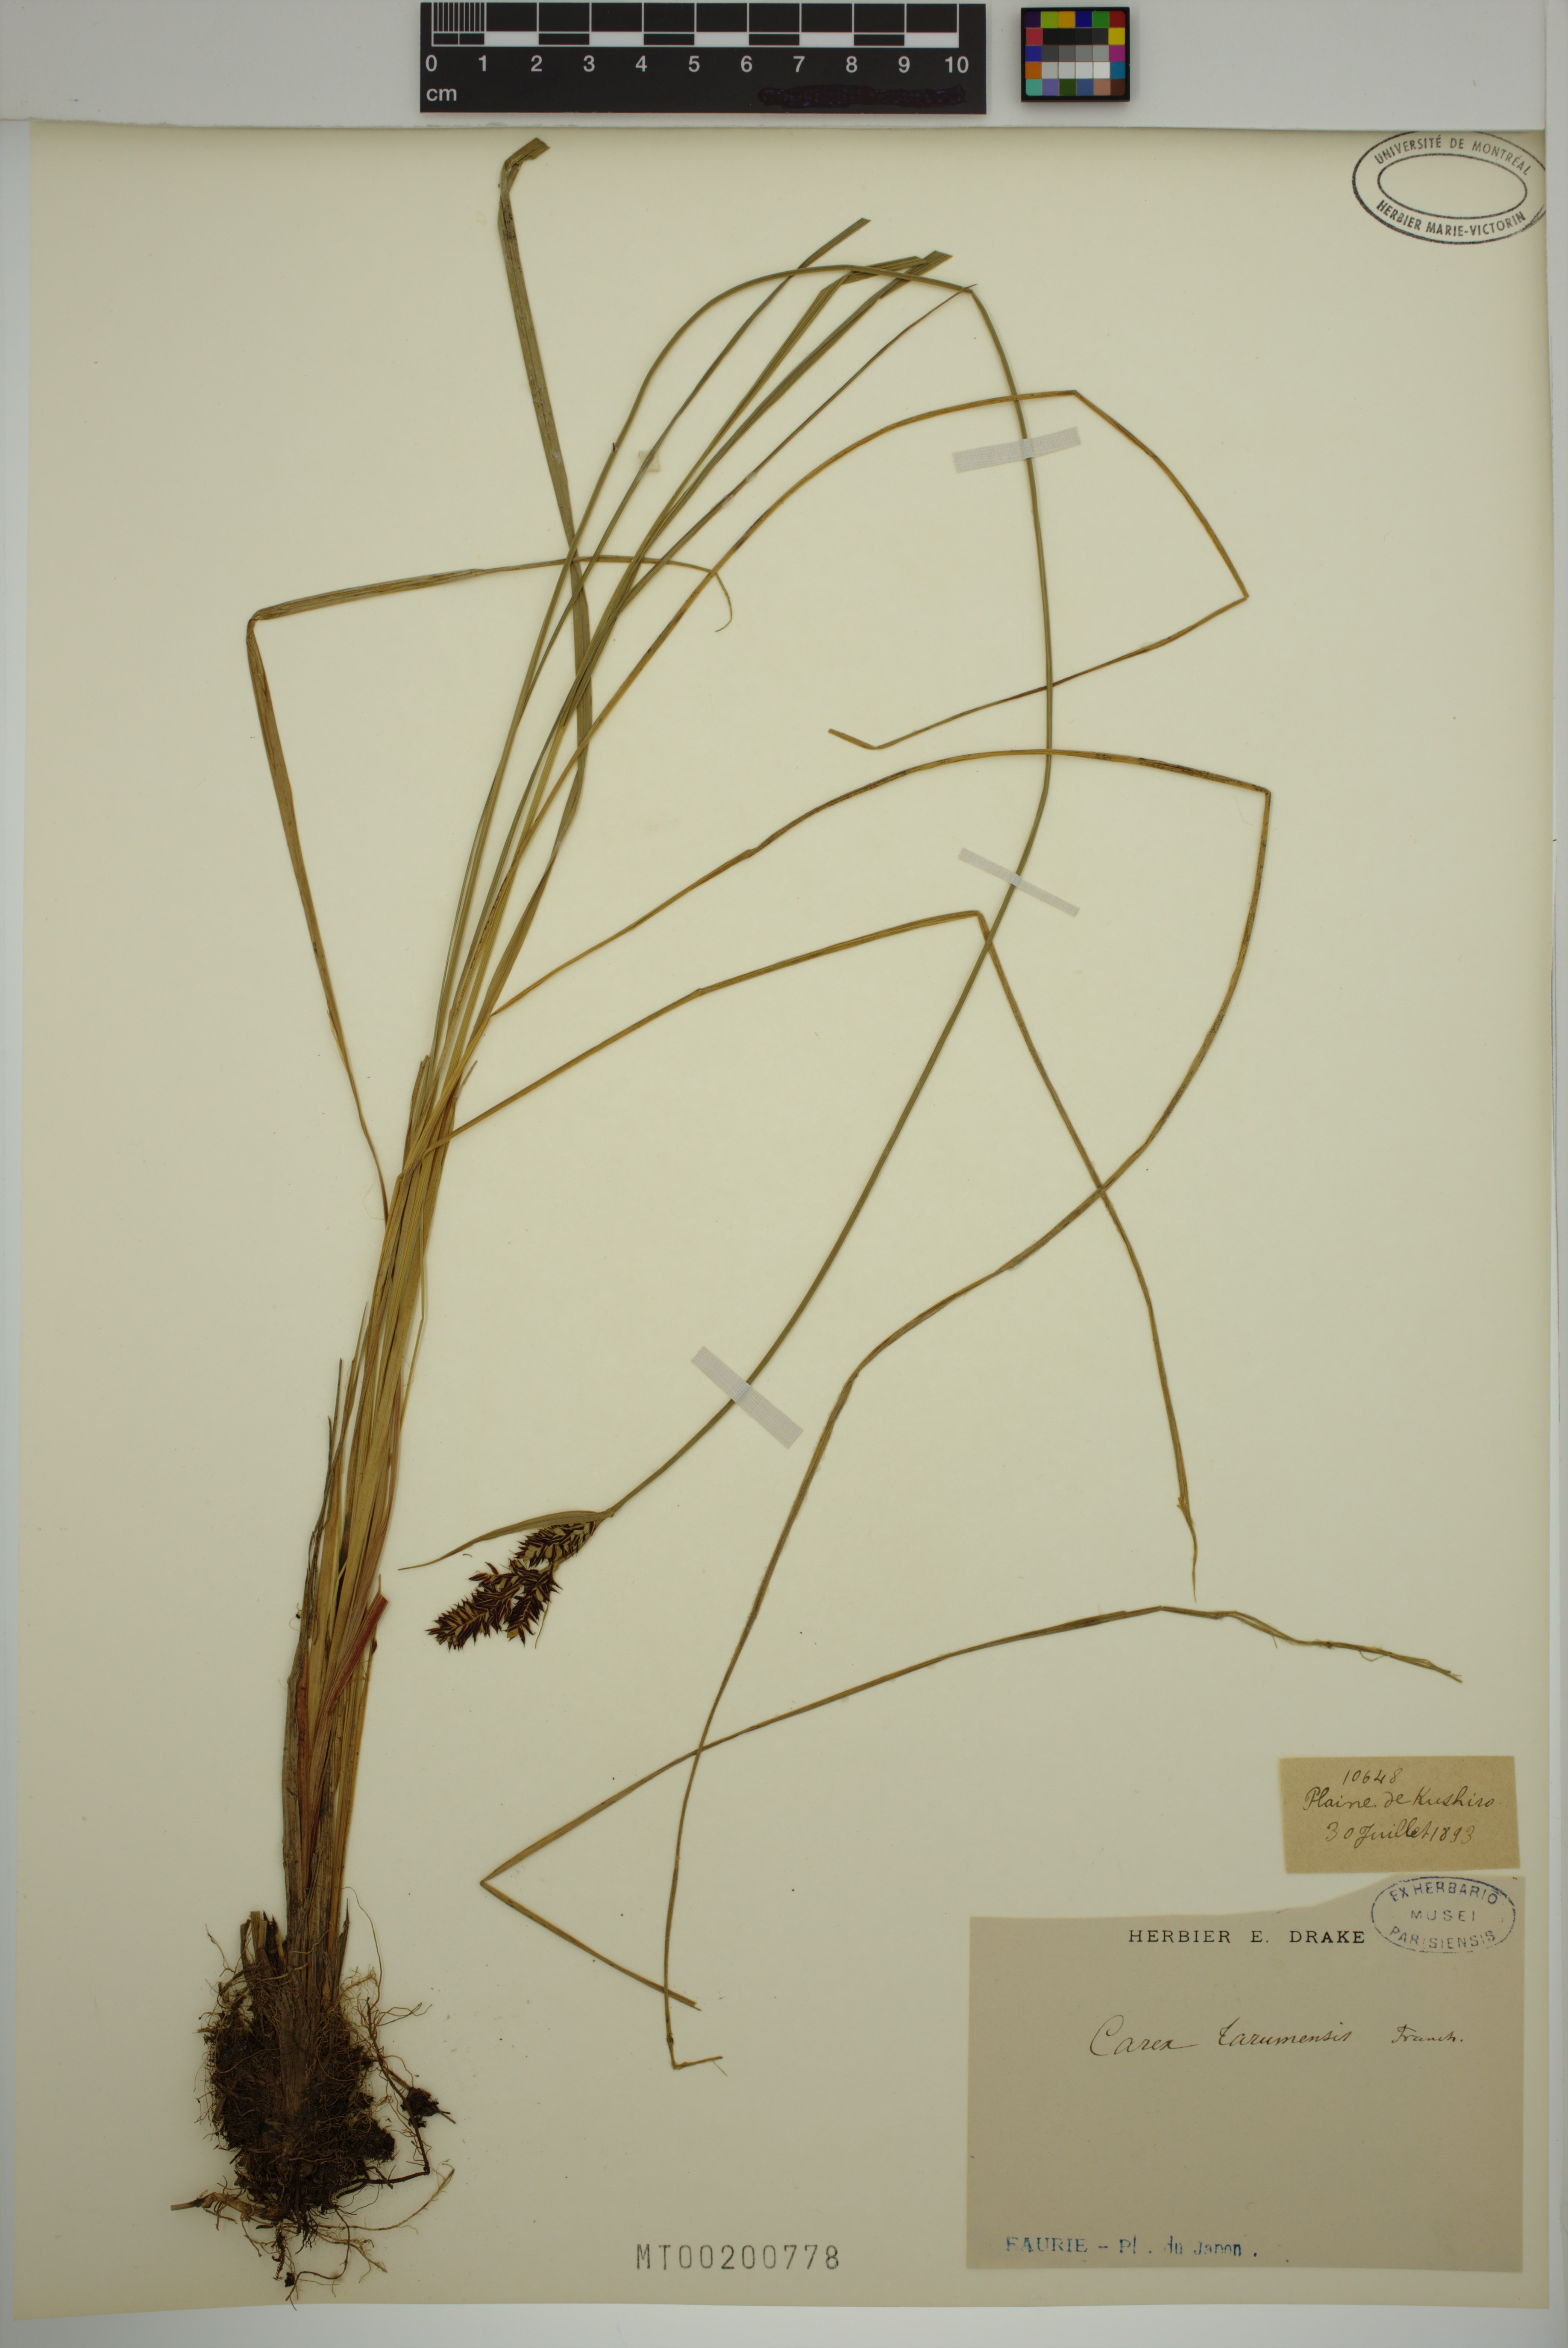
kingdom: Plantae
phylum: Tracheophyta
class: Liliopsida
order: Poales
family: Cyperaceae
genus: Carex
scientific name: Carex tarumensis
